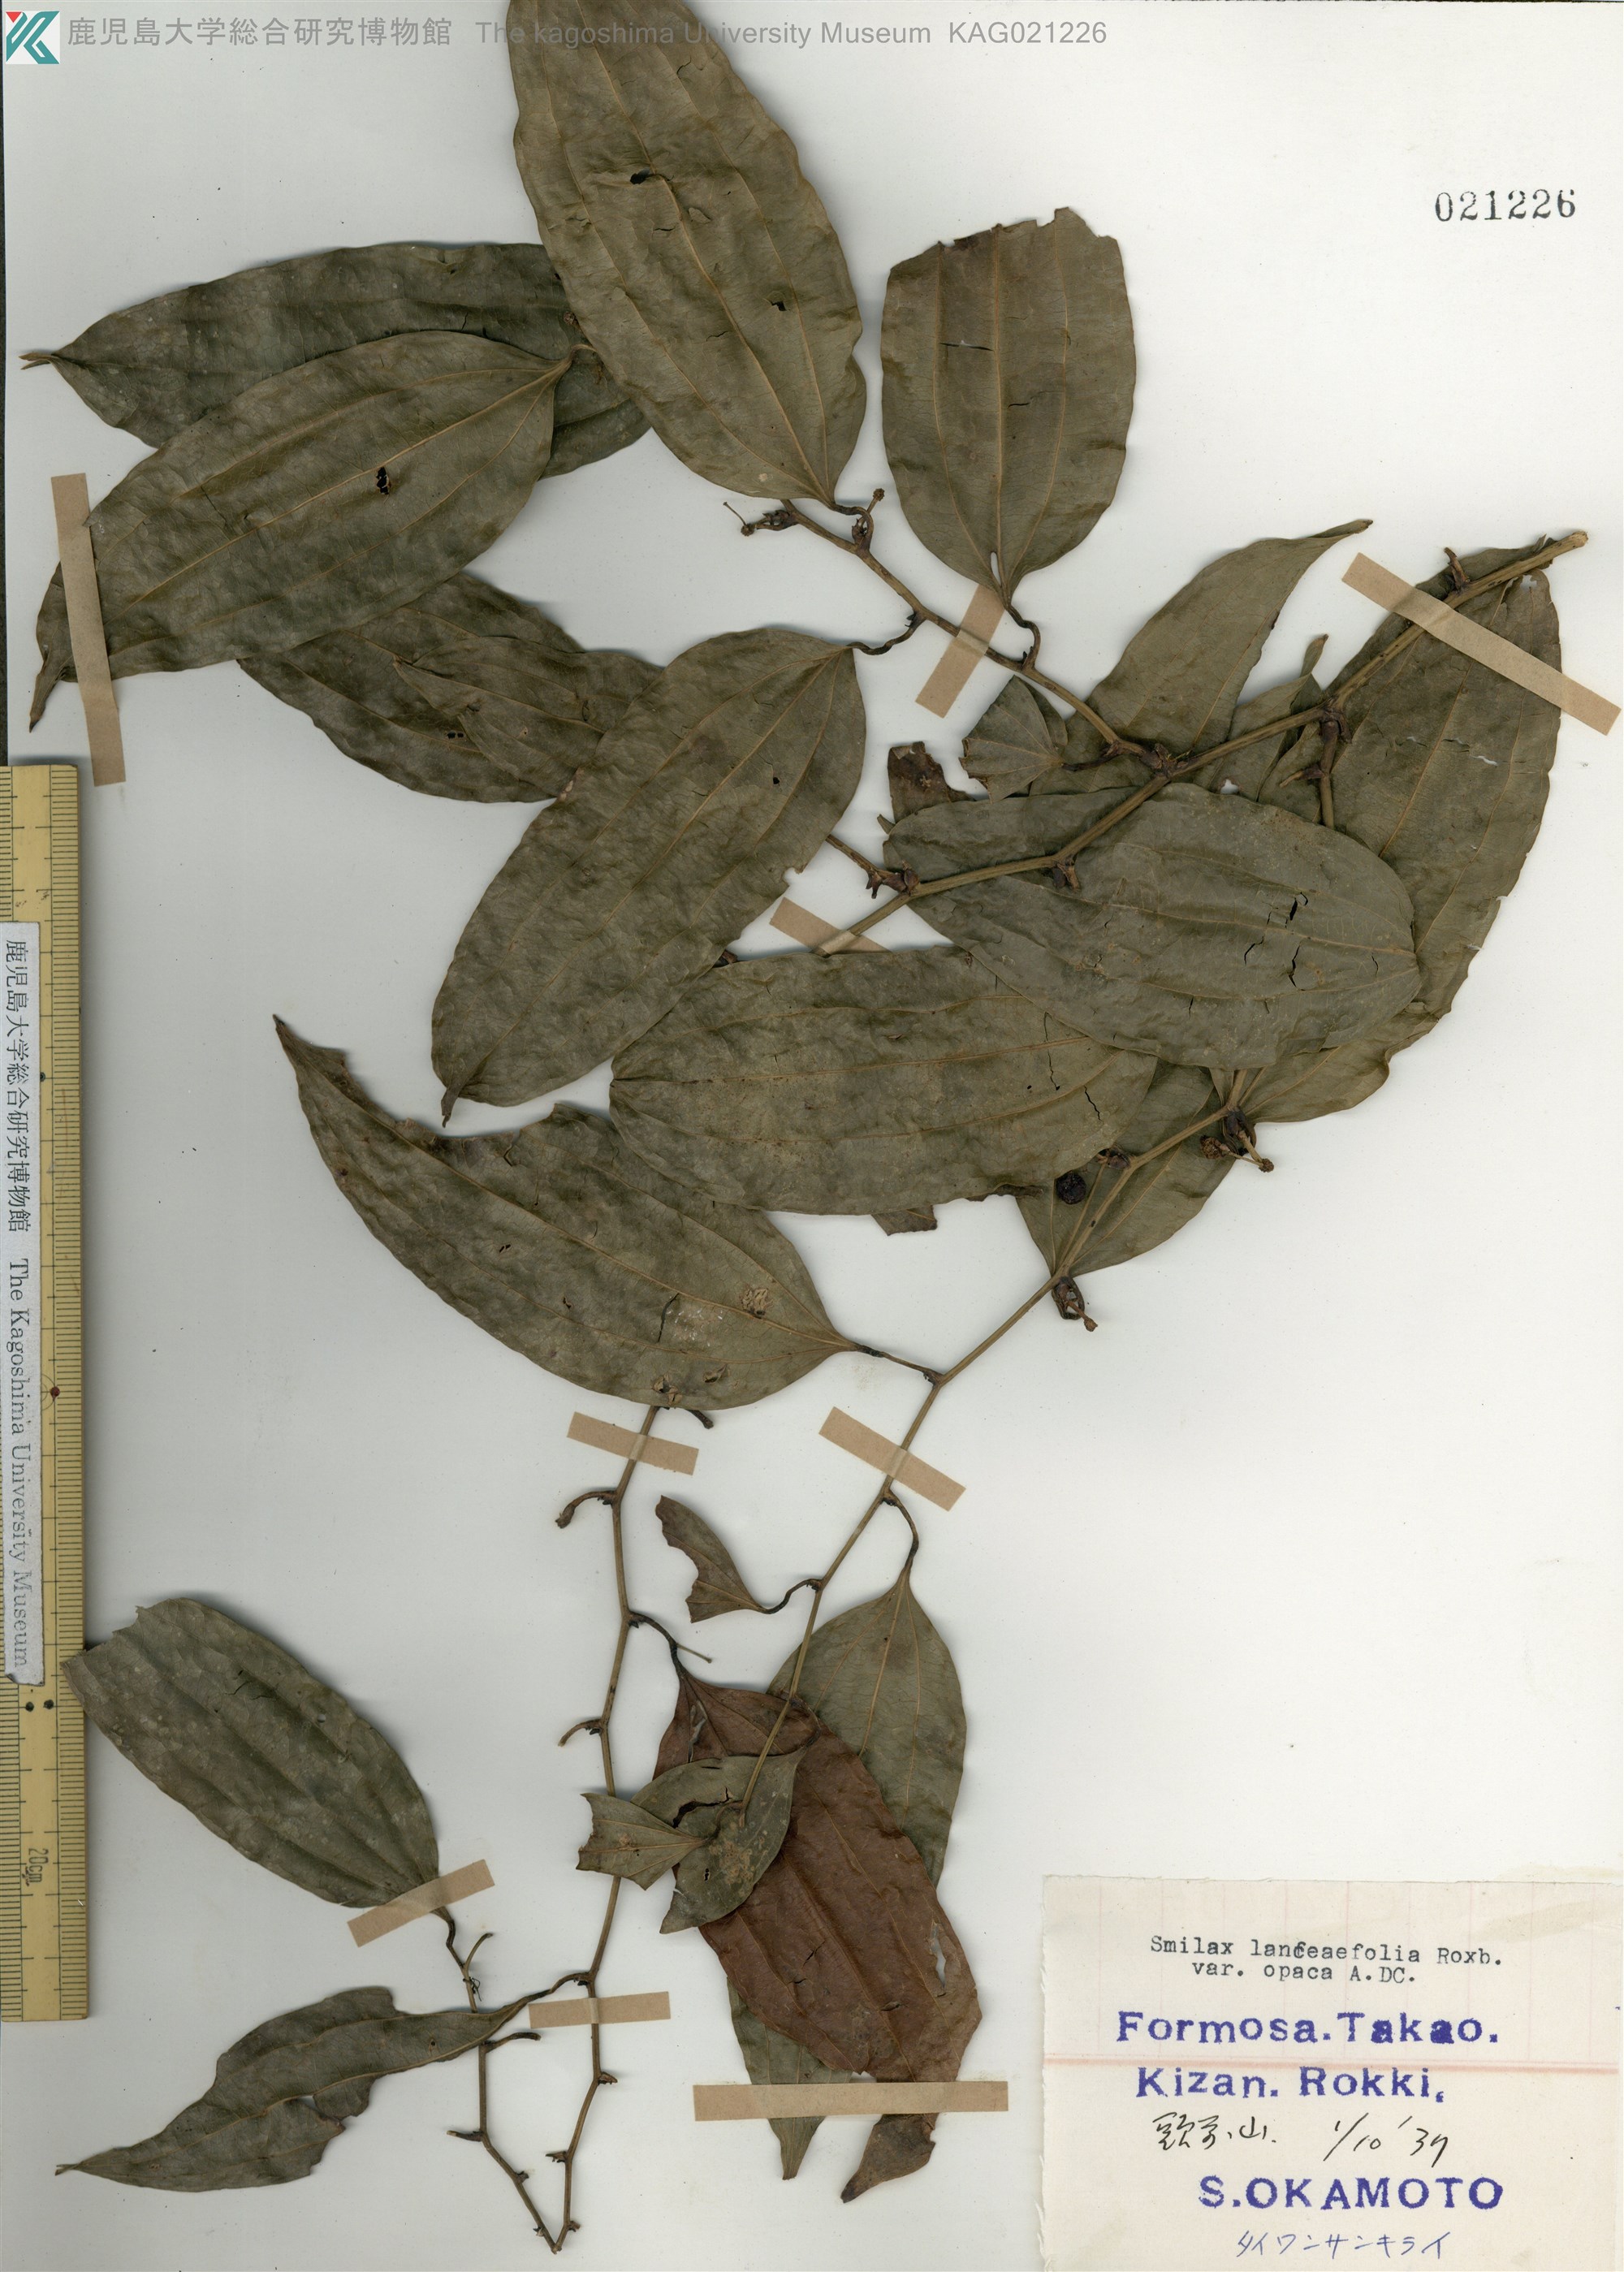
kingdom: Plantae
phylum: Tracheophyta
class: Liliopsida
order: Liliales
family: Smilacaceae
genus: Smilax
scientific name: Smilax laevis
